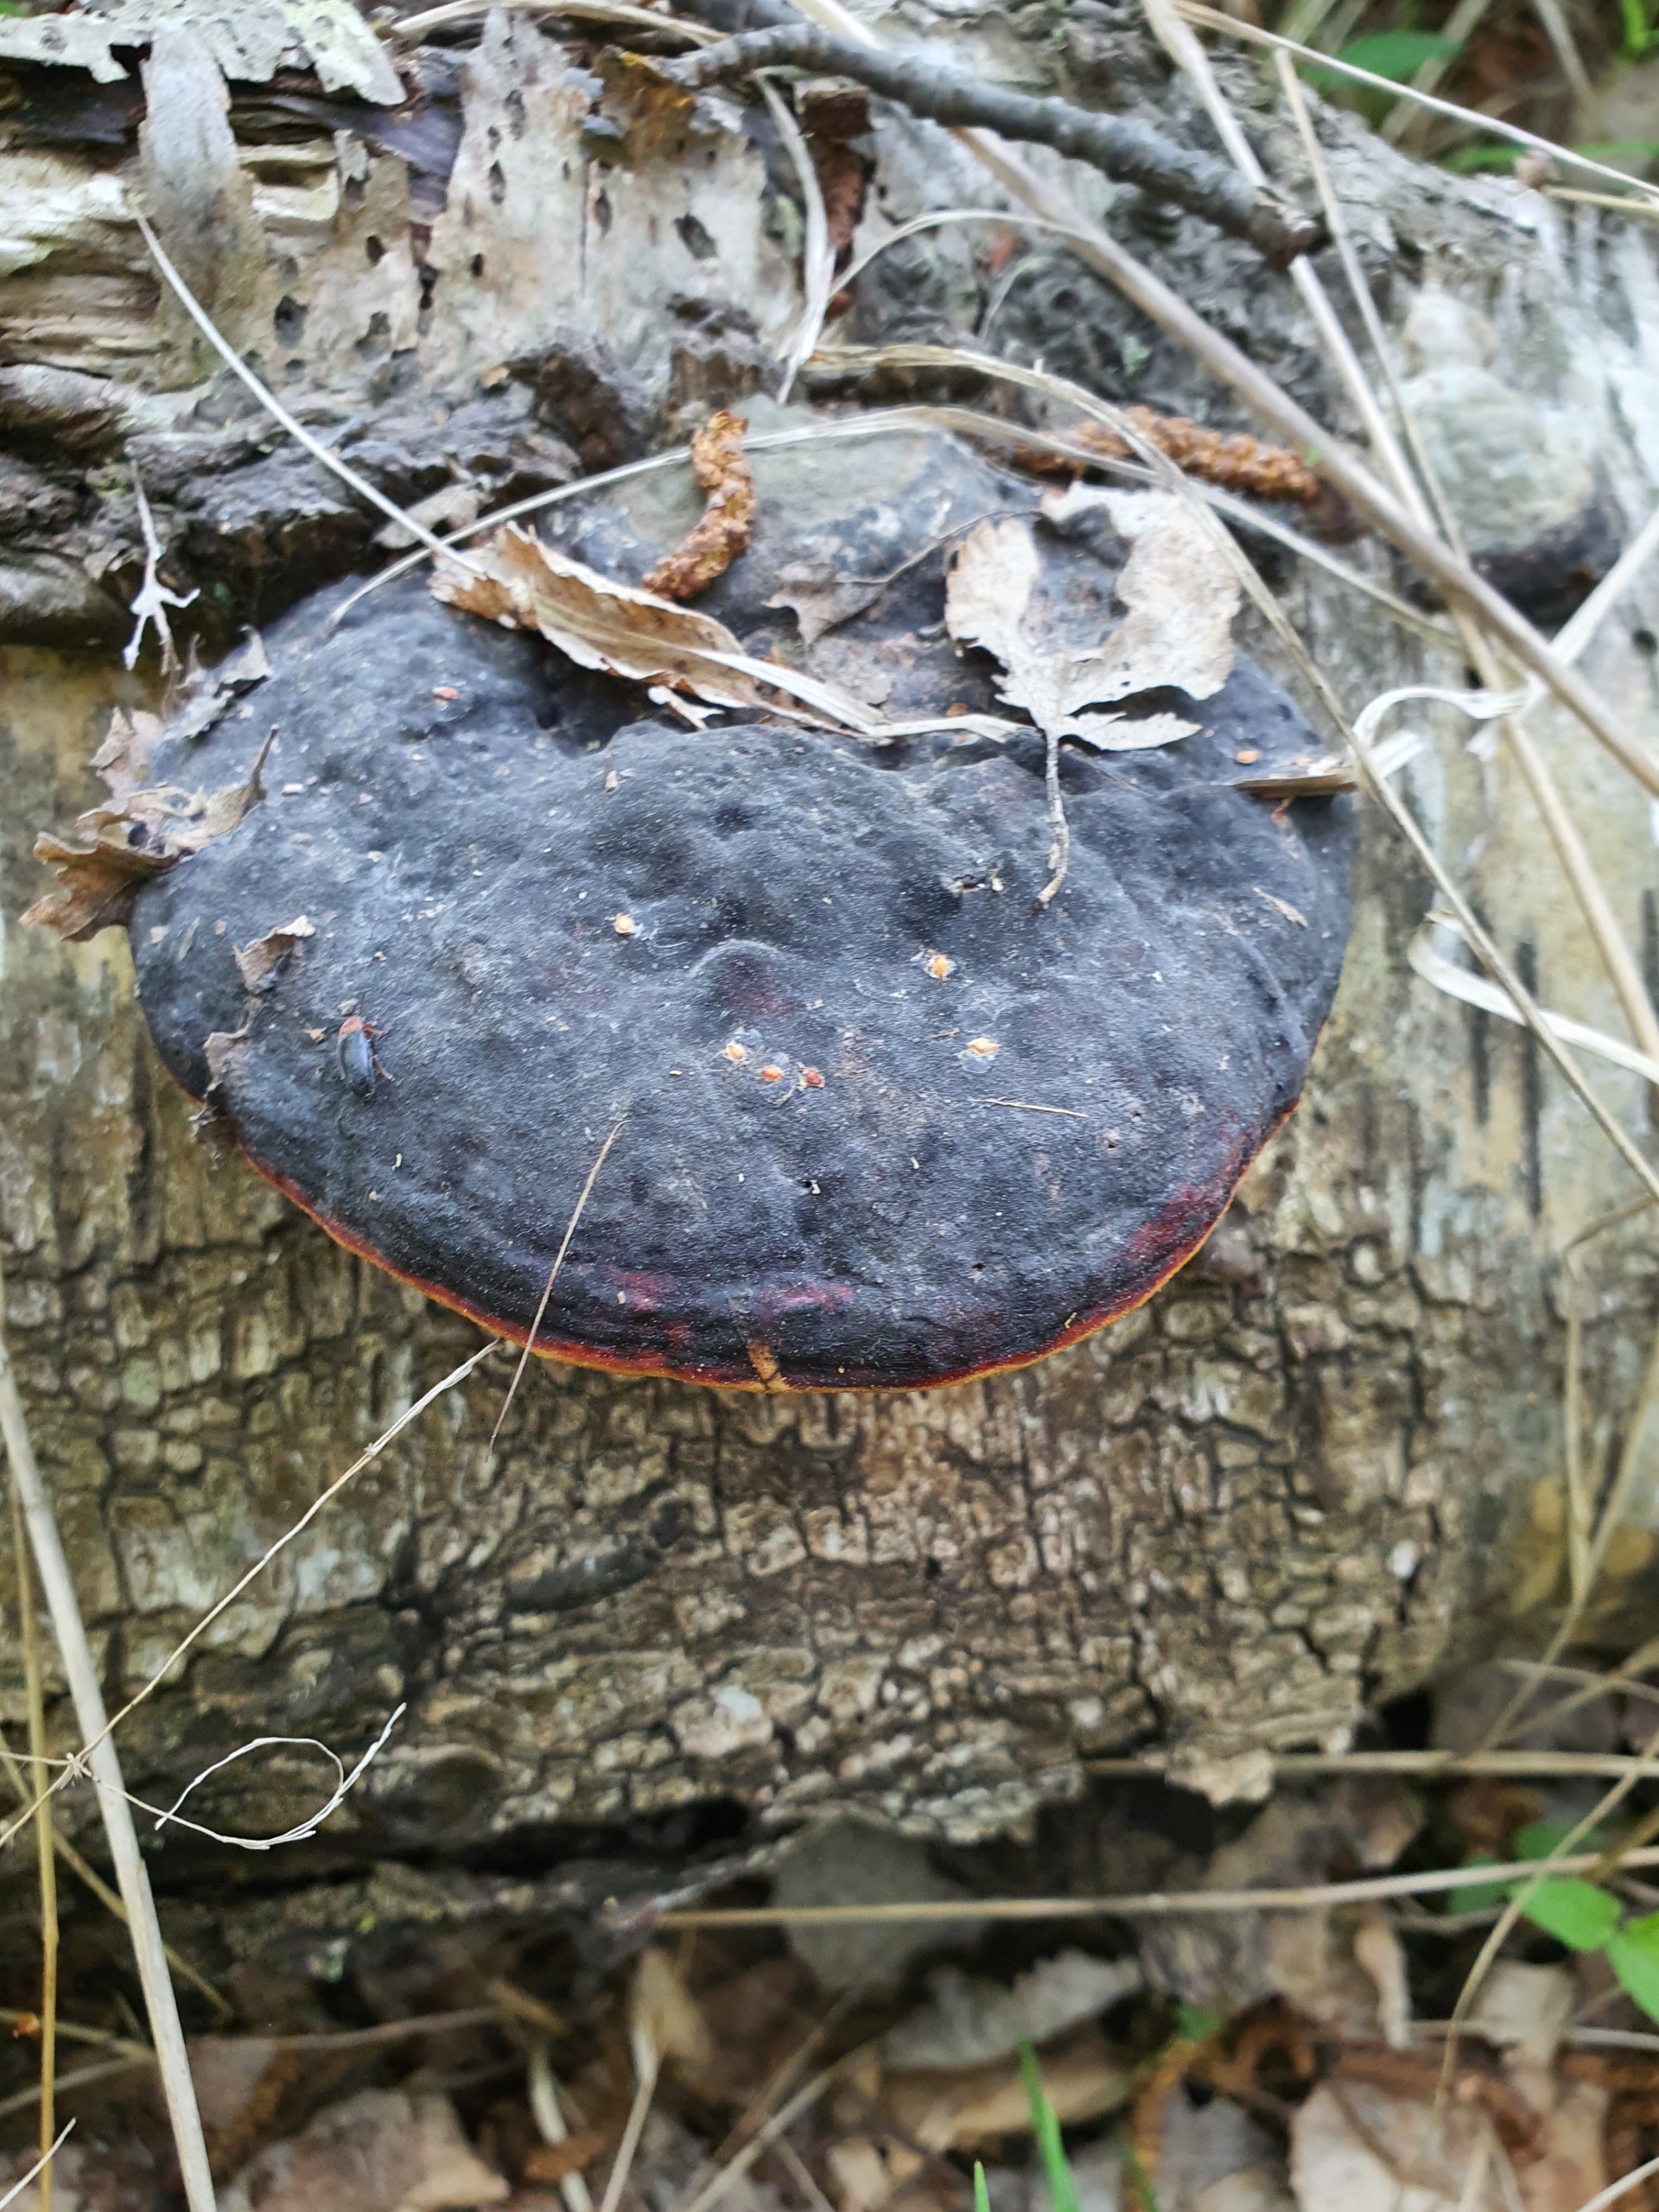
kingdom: Fungi
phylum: Basidiomycota
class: Agaricomycetes
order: Polyporales
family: Fomitopsidaceae
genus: Fomitopsis
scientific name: Fomitopsis pinicola
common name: Randbæltet hovporesvamp
